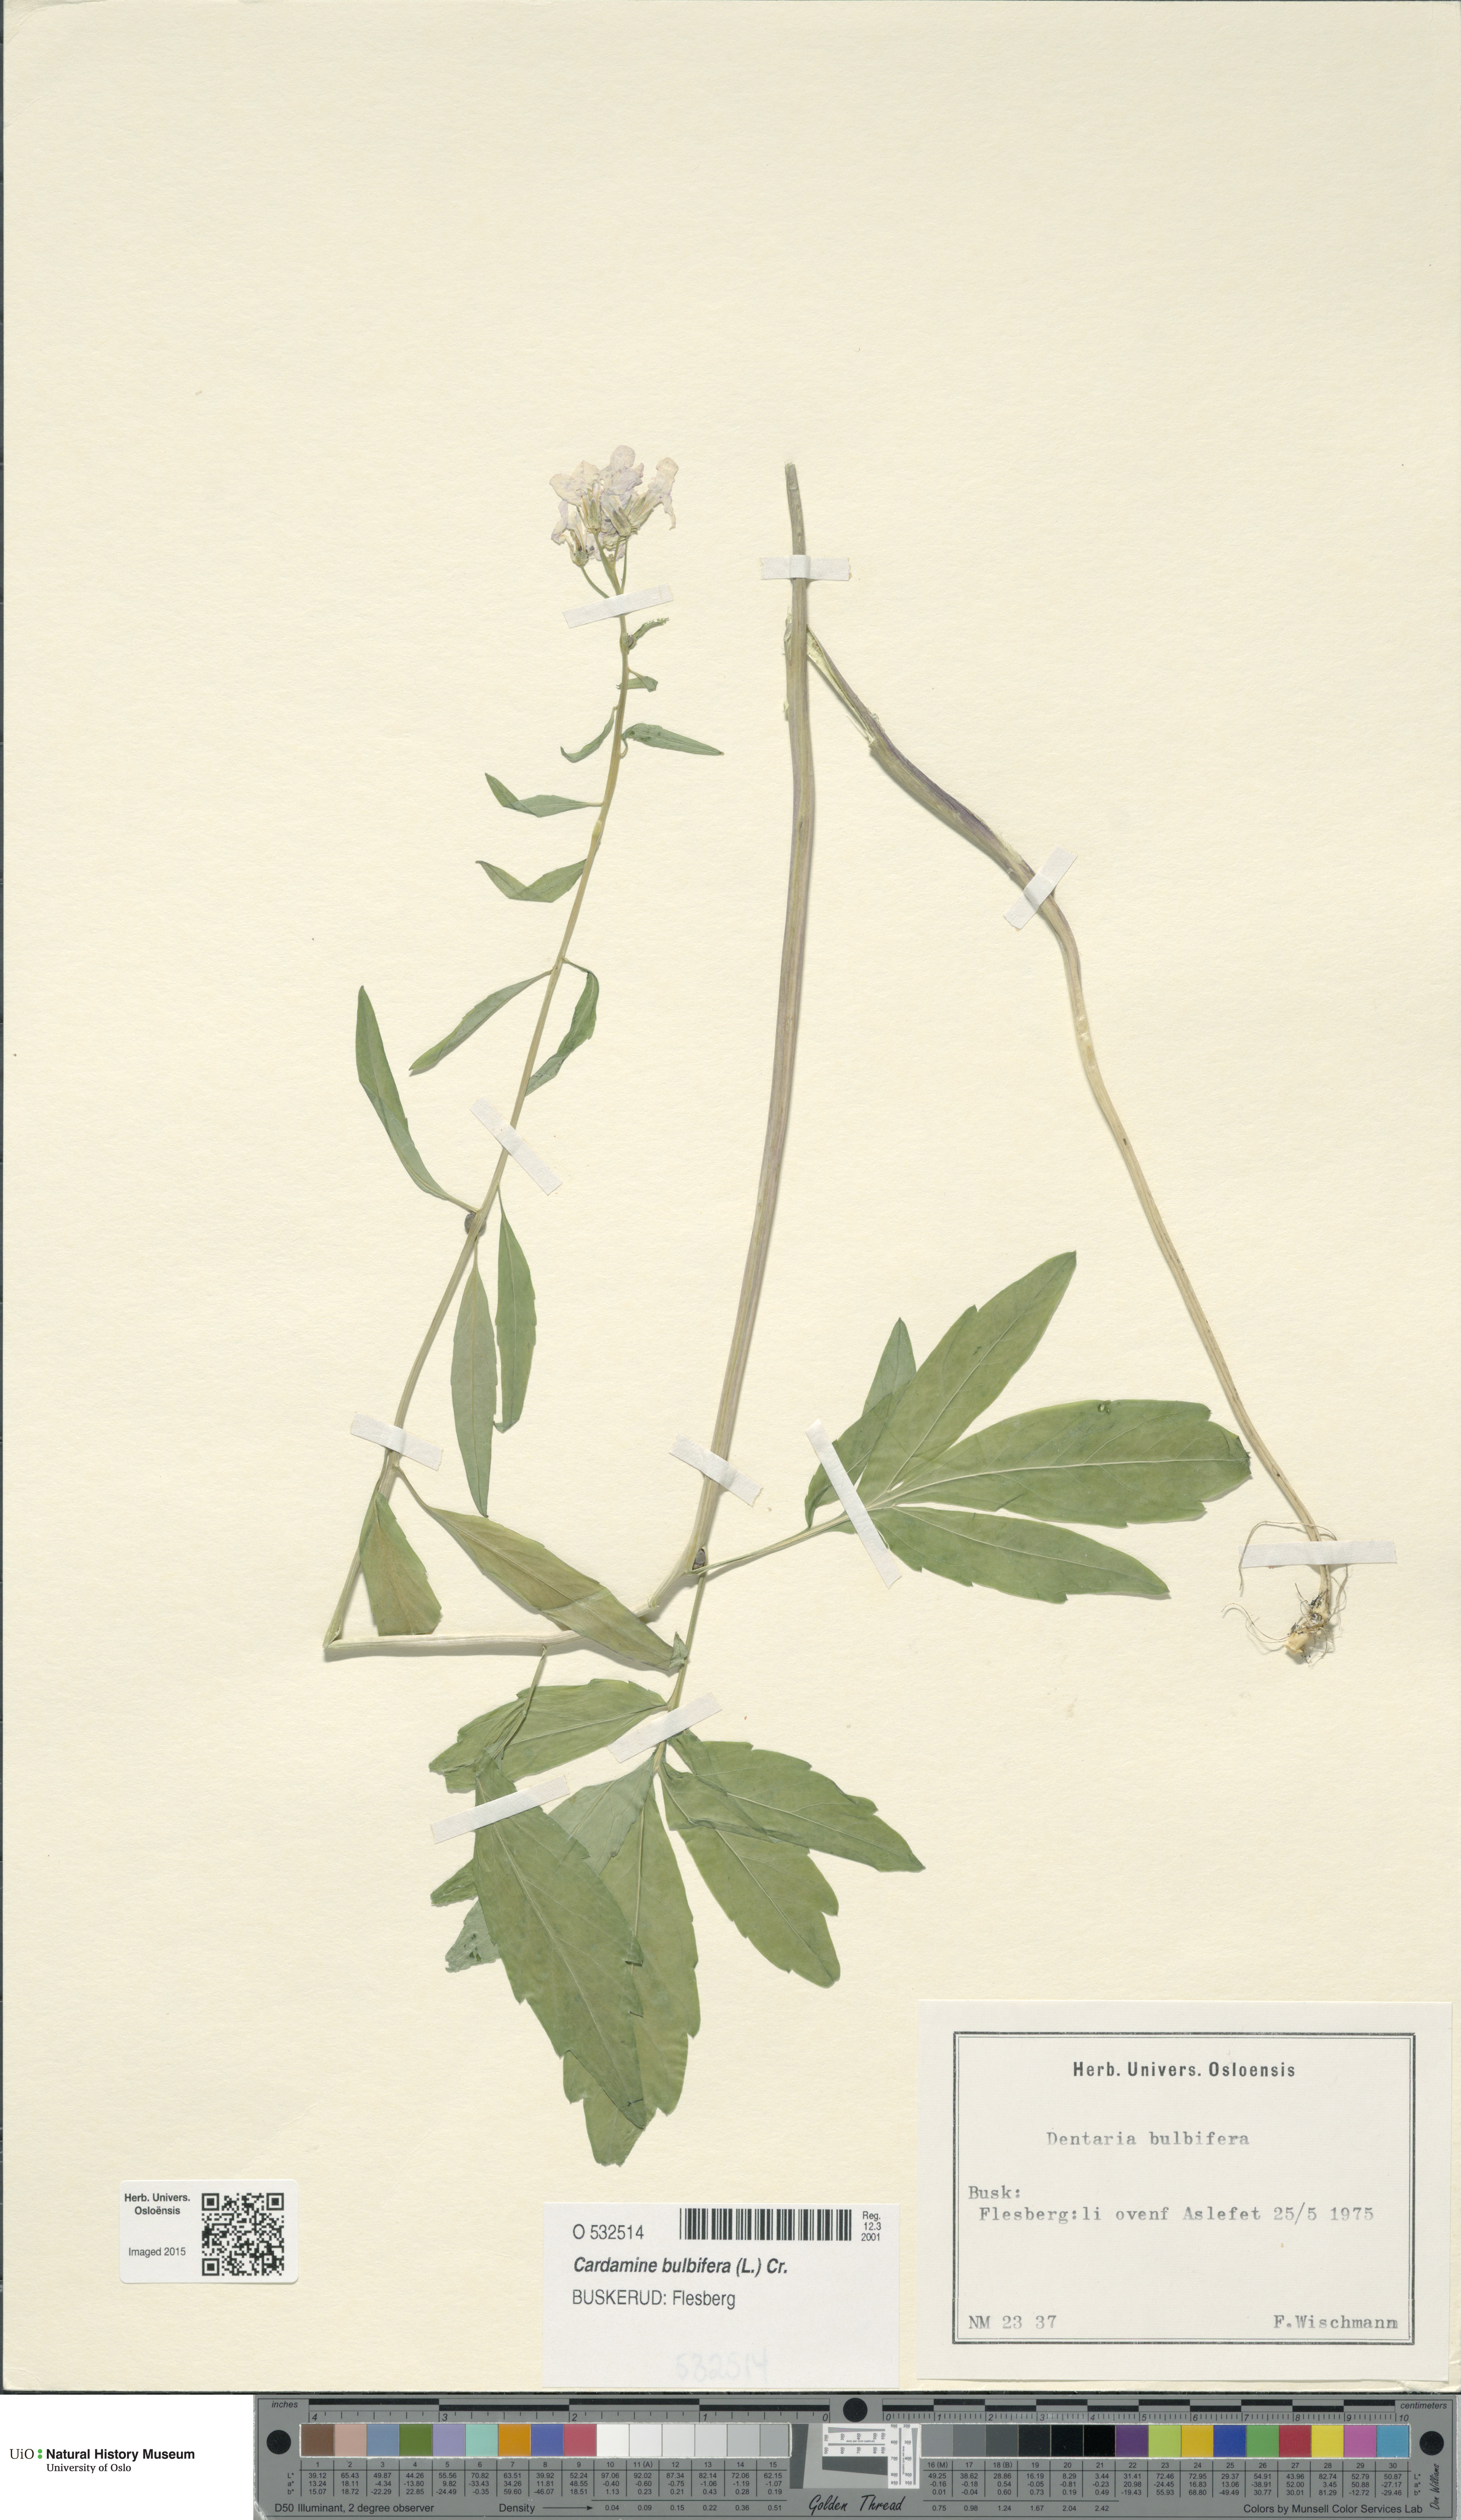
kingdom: Plantae
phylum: Tracheophyta
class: Magnoliopsida
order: Brassicales
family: Brassicaceae
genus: Cardamine
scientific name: Cardamine bulbifera
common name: Coralroot bittercress
